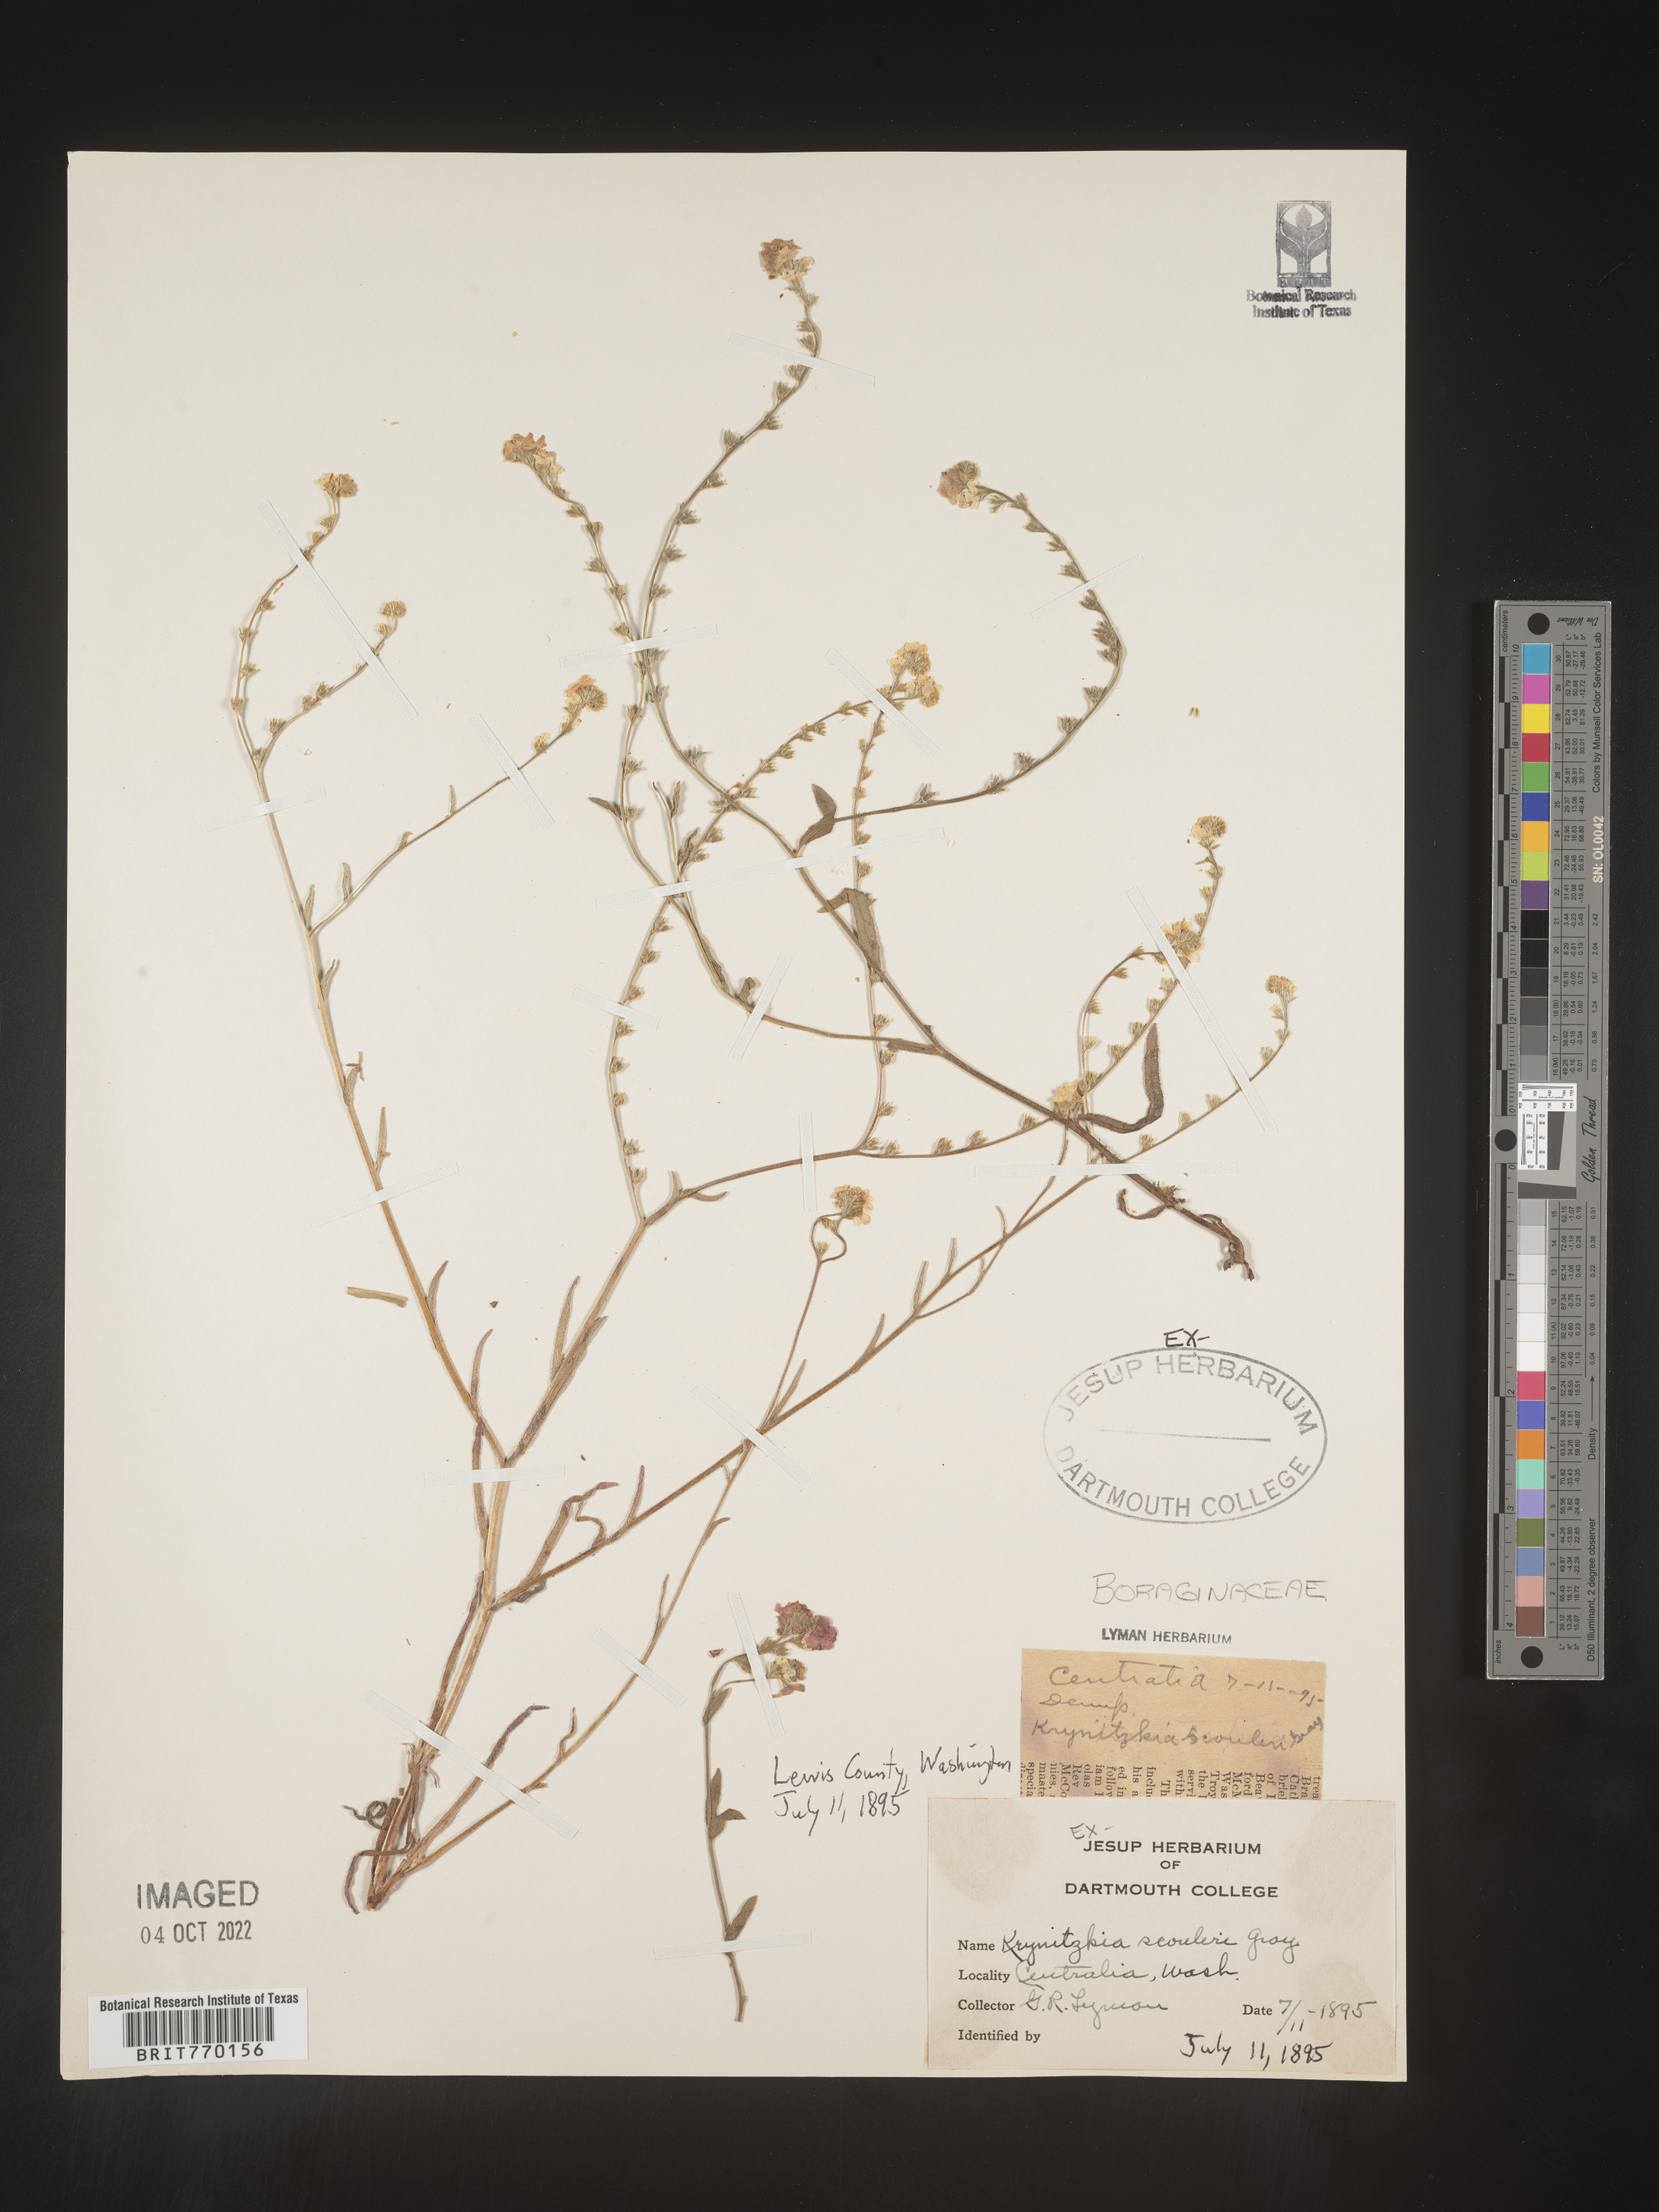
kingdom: Plantae
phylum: Tracheophyta
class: Magnoliopsida
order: Boraginales
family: Boraginaceae
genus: Plagiobothrys
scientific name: Plagiobothrys
